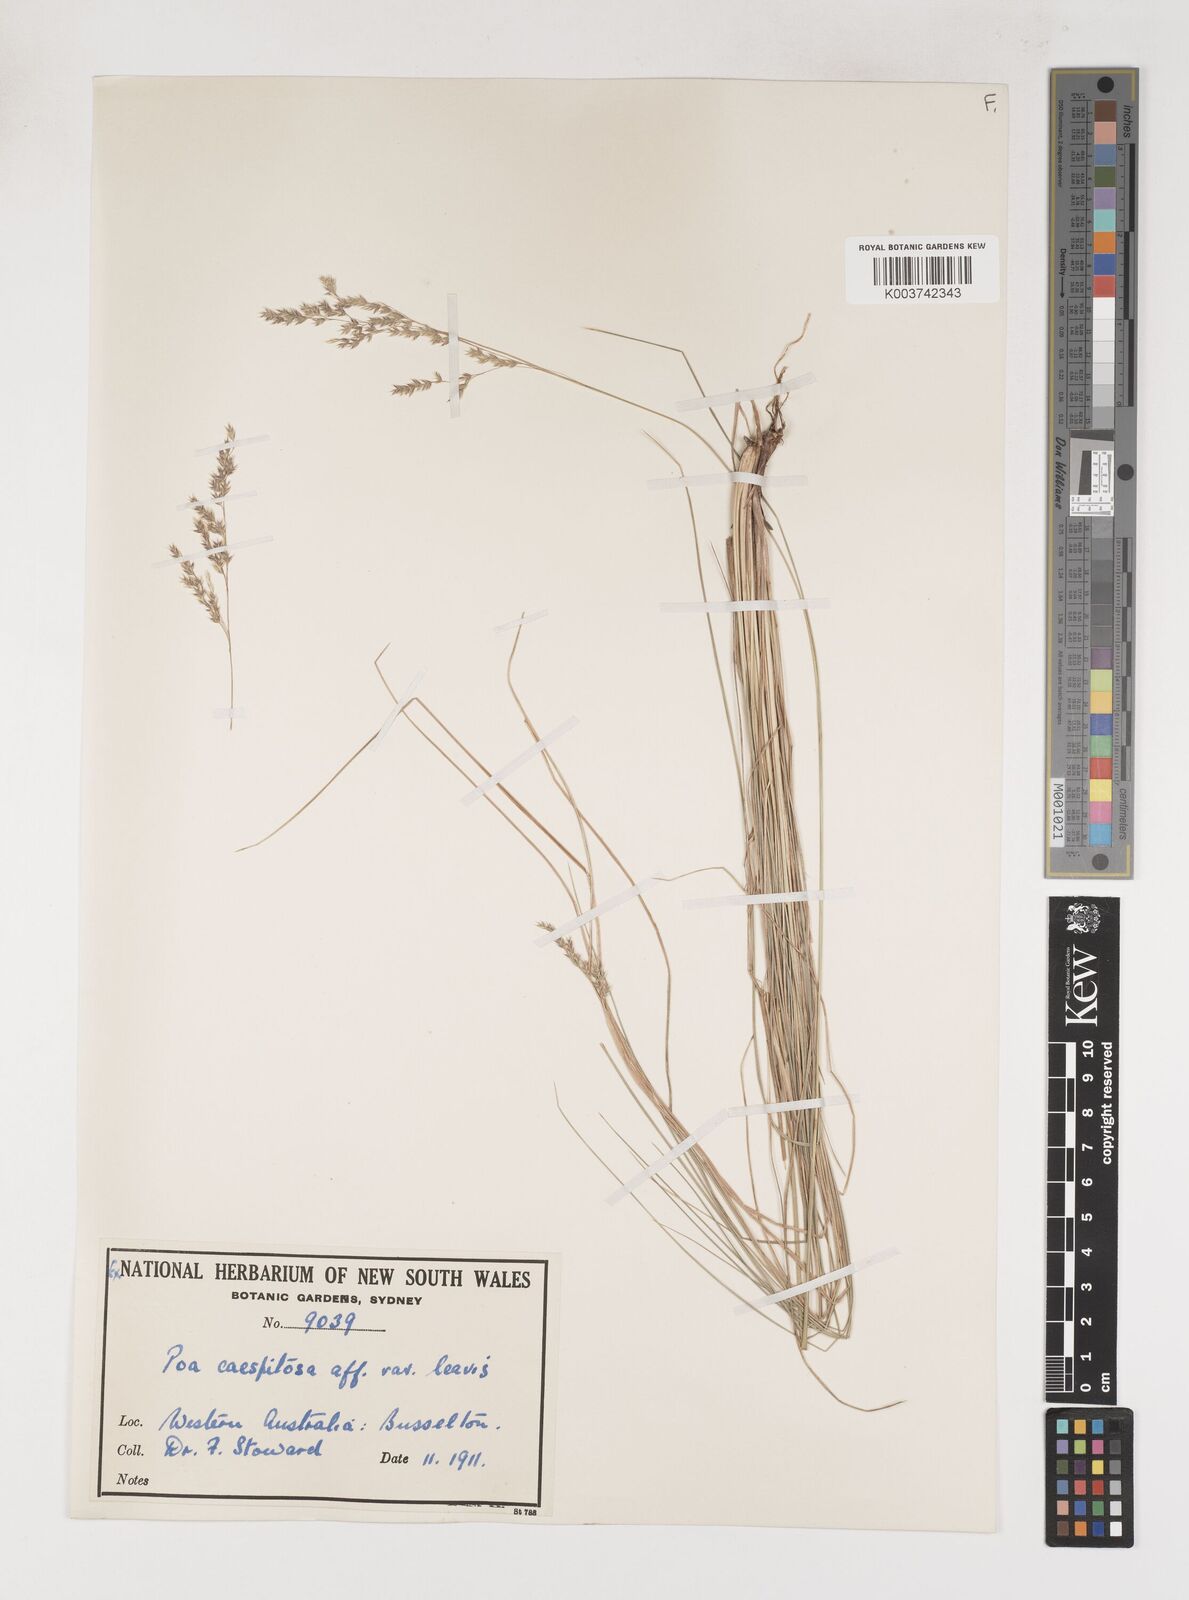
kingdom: Plantae
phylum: Tracheophyta
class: Liliopsida
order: Poales
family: Poaceae
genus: Poa
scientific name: Poa poiformis
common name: Tussock poa
